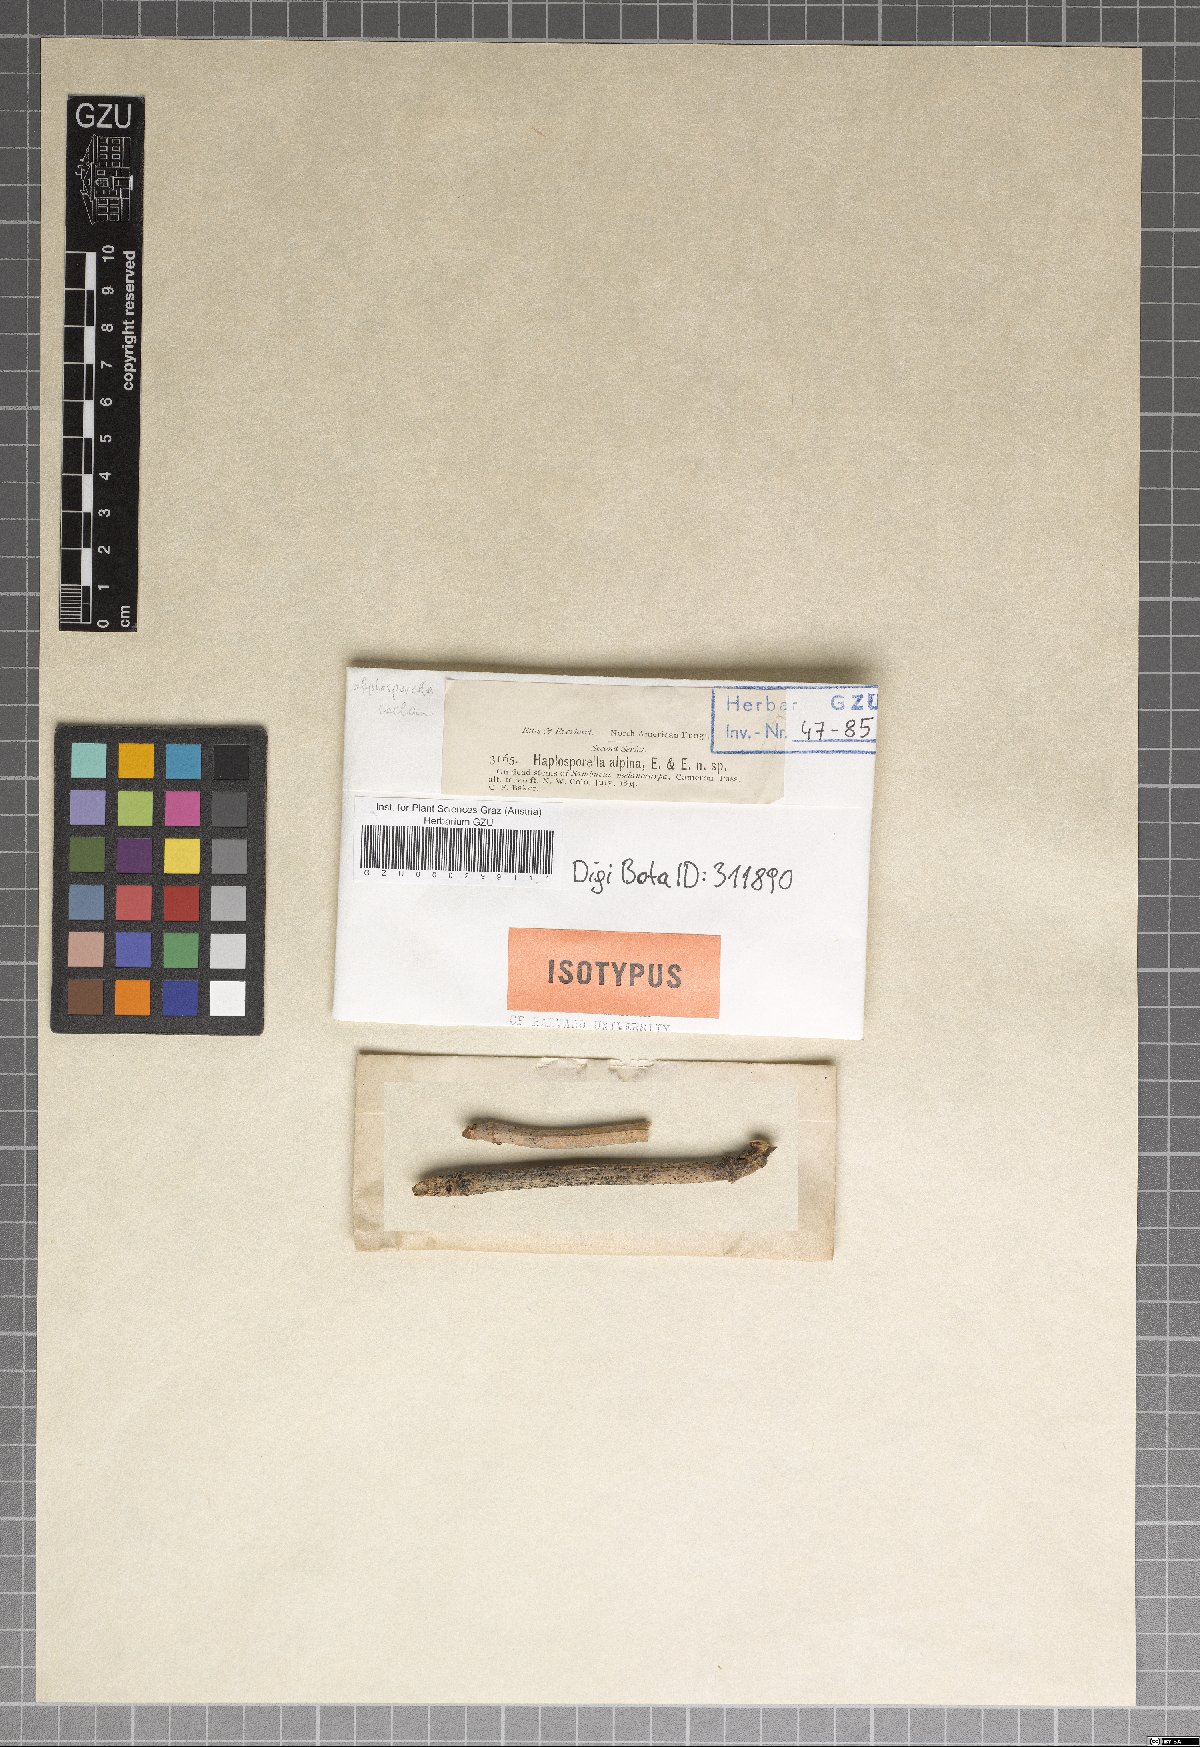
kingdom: Fungi
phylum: Ascomycota
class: Dothideomycetes
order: Botryosphaeriales
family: Botryosphaeriaceae
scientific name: Botryosphaeriaceae
